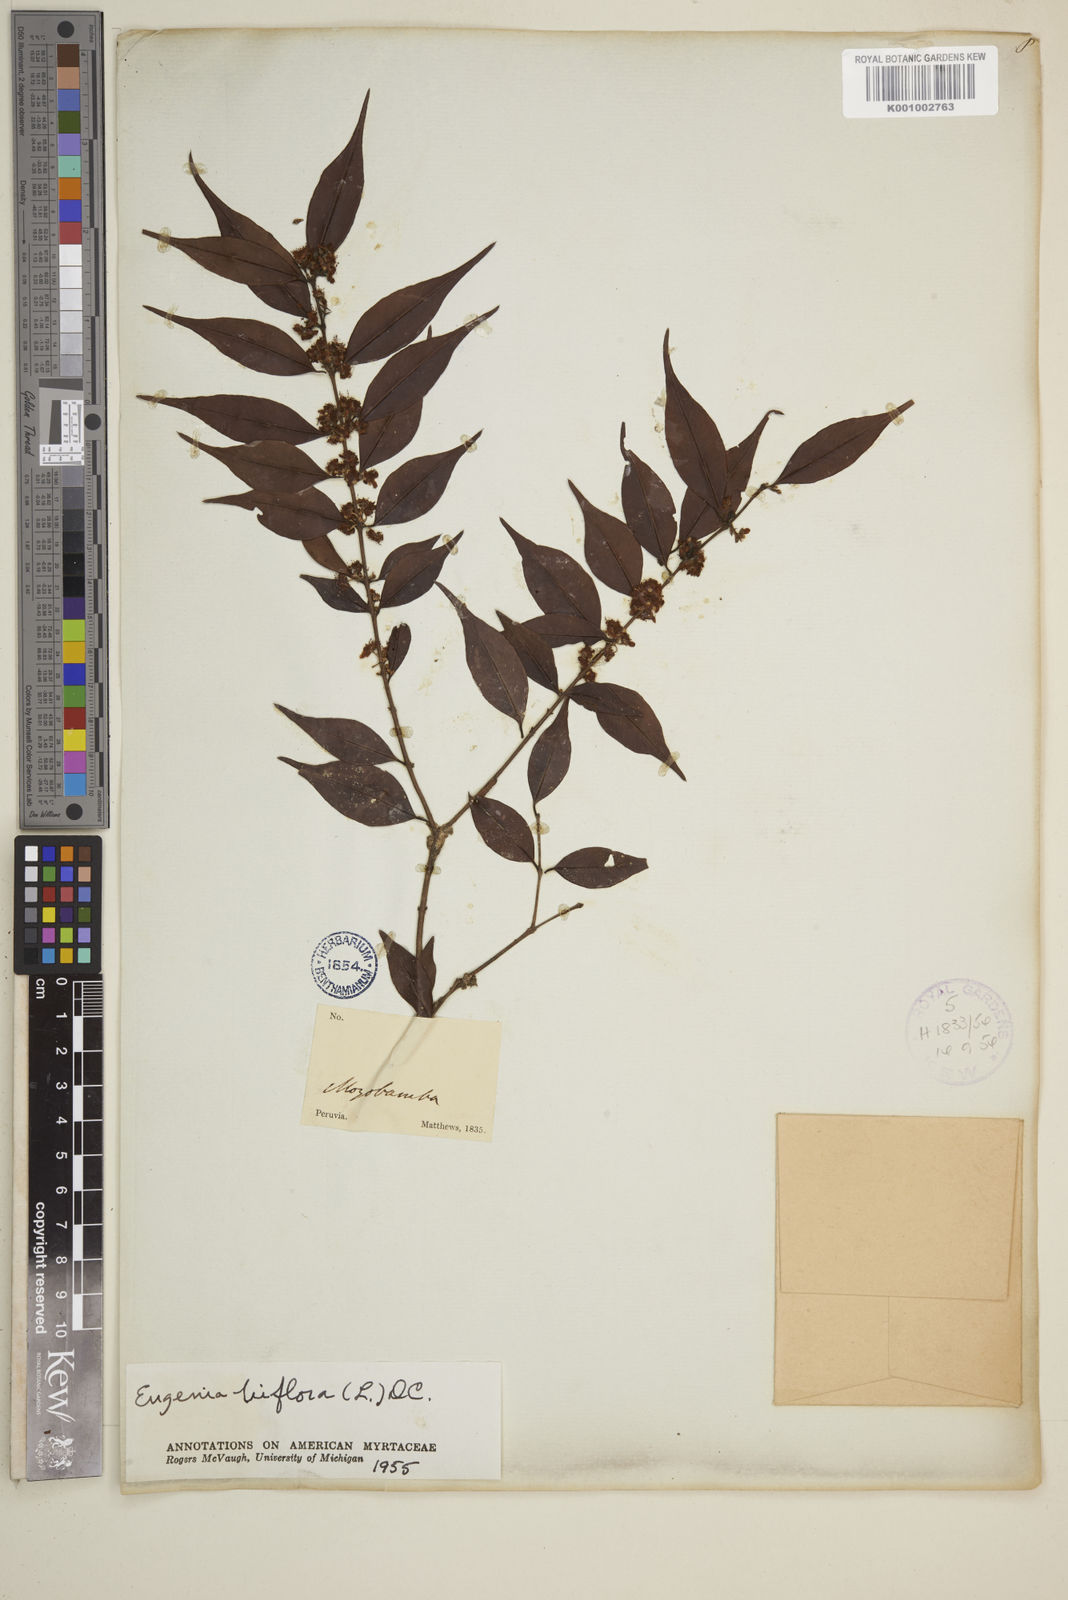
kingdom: Plantae
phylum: Tracheophyta
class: Magnoliopsida
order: Myrtales
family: Myrtaceae
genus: Eugenia
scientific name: Eugenia biflora
